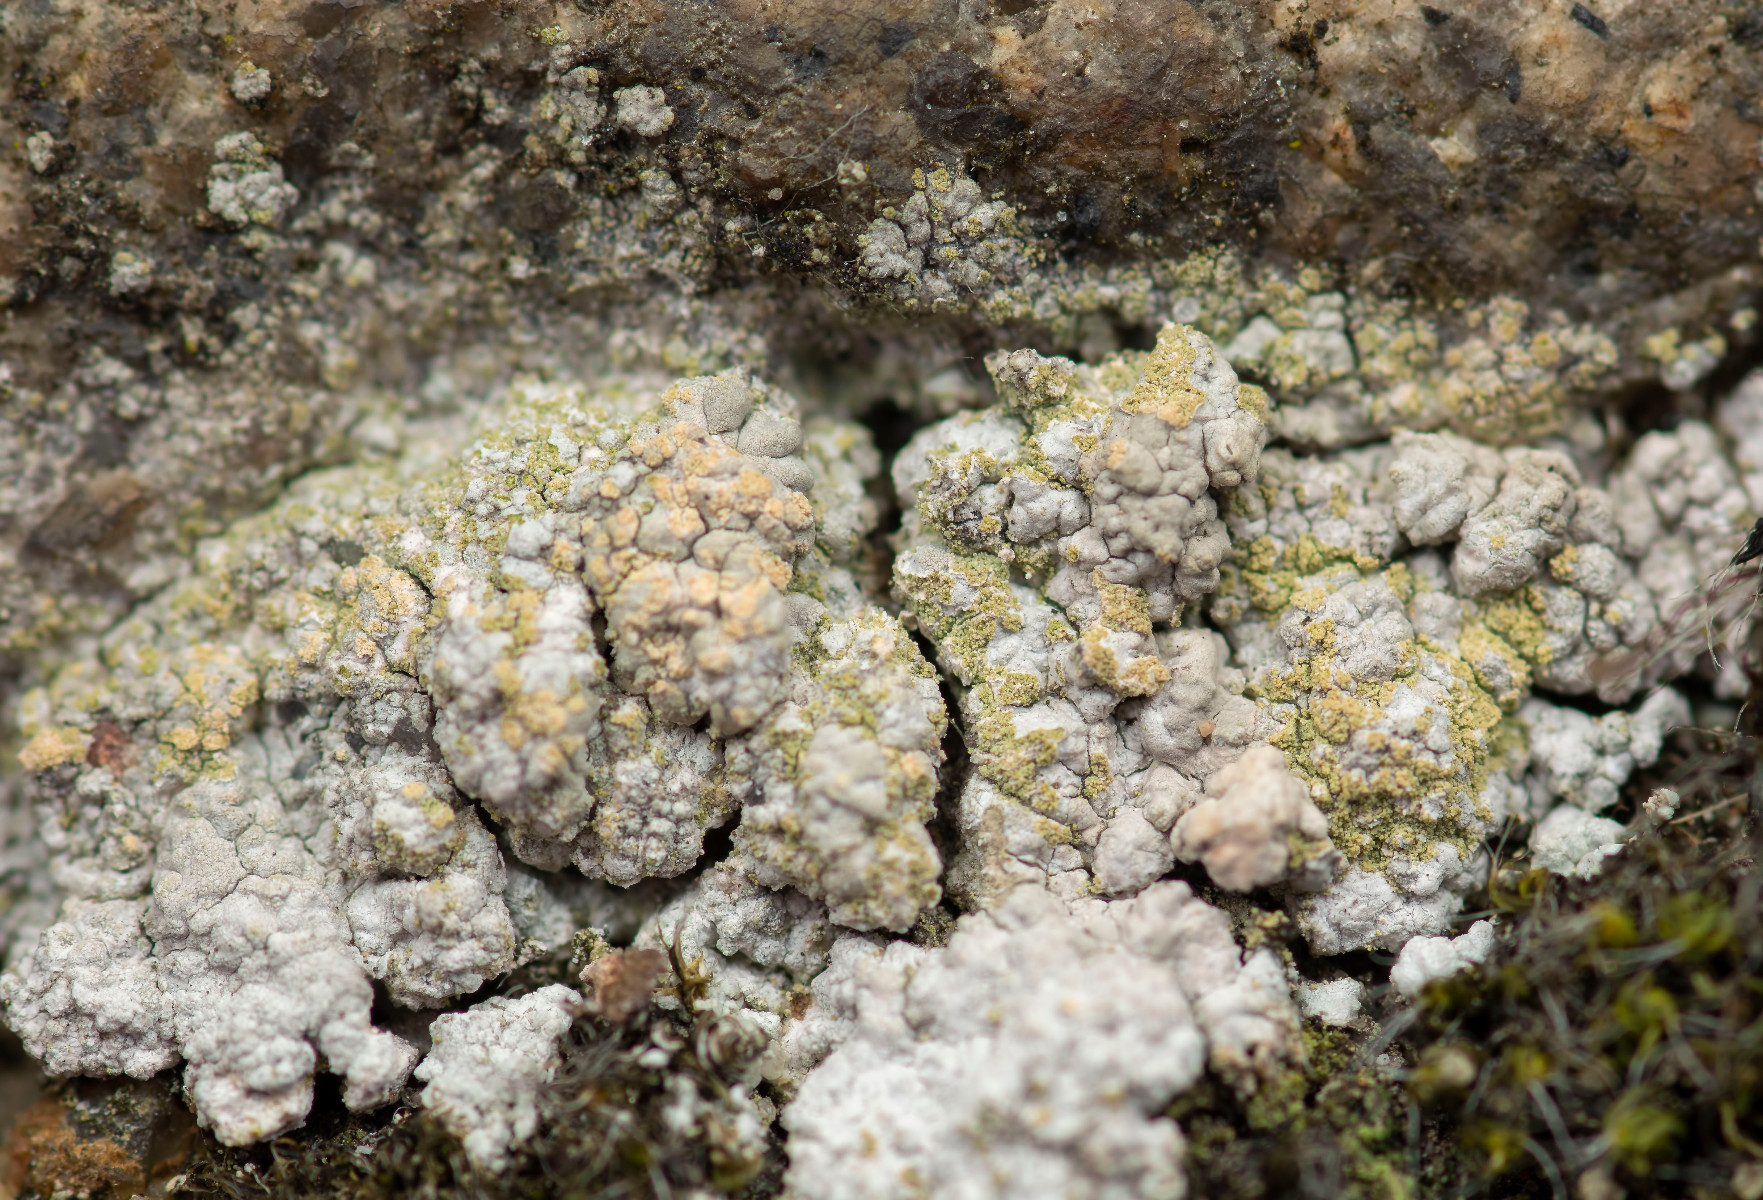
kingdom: Fungi
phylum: Ascomycota
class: Lecanoromycetes
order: Pertusariales
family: Ochrolechiaceae
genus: Ochrolechia
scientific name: Ochrolechia androgyna
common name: bark-blegskivelav
